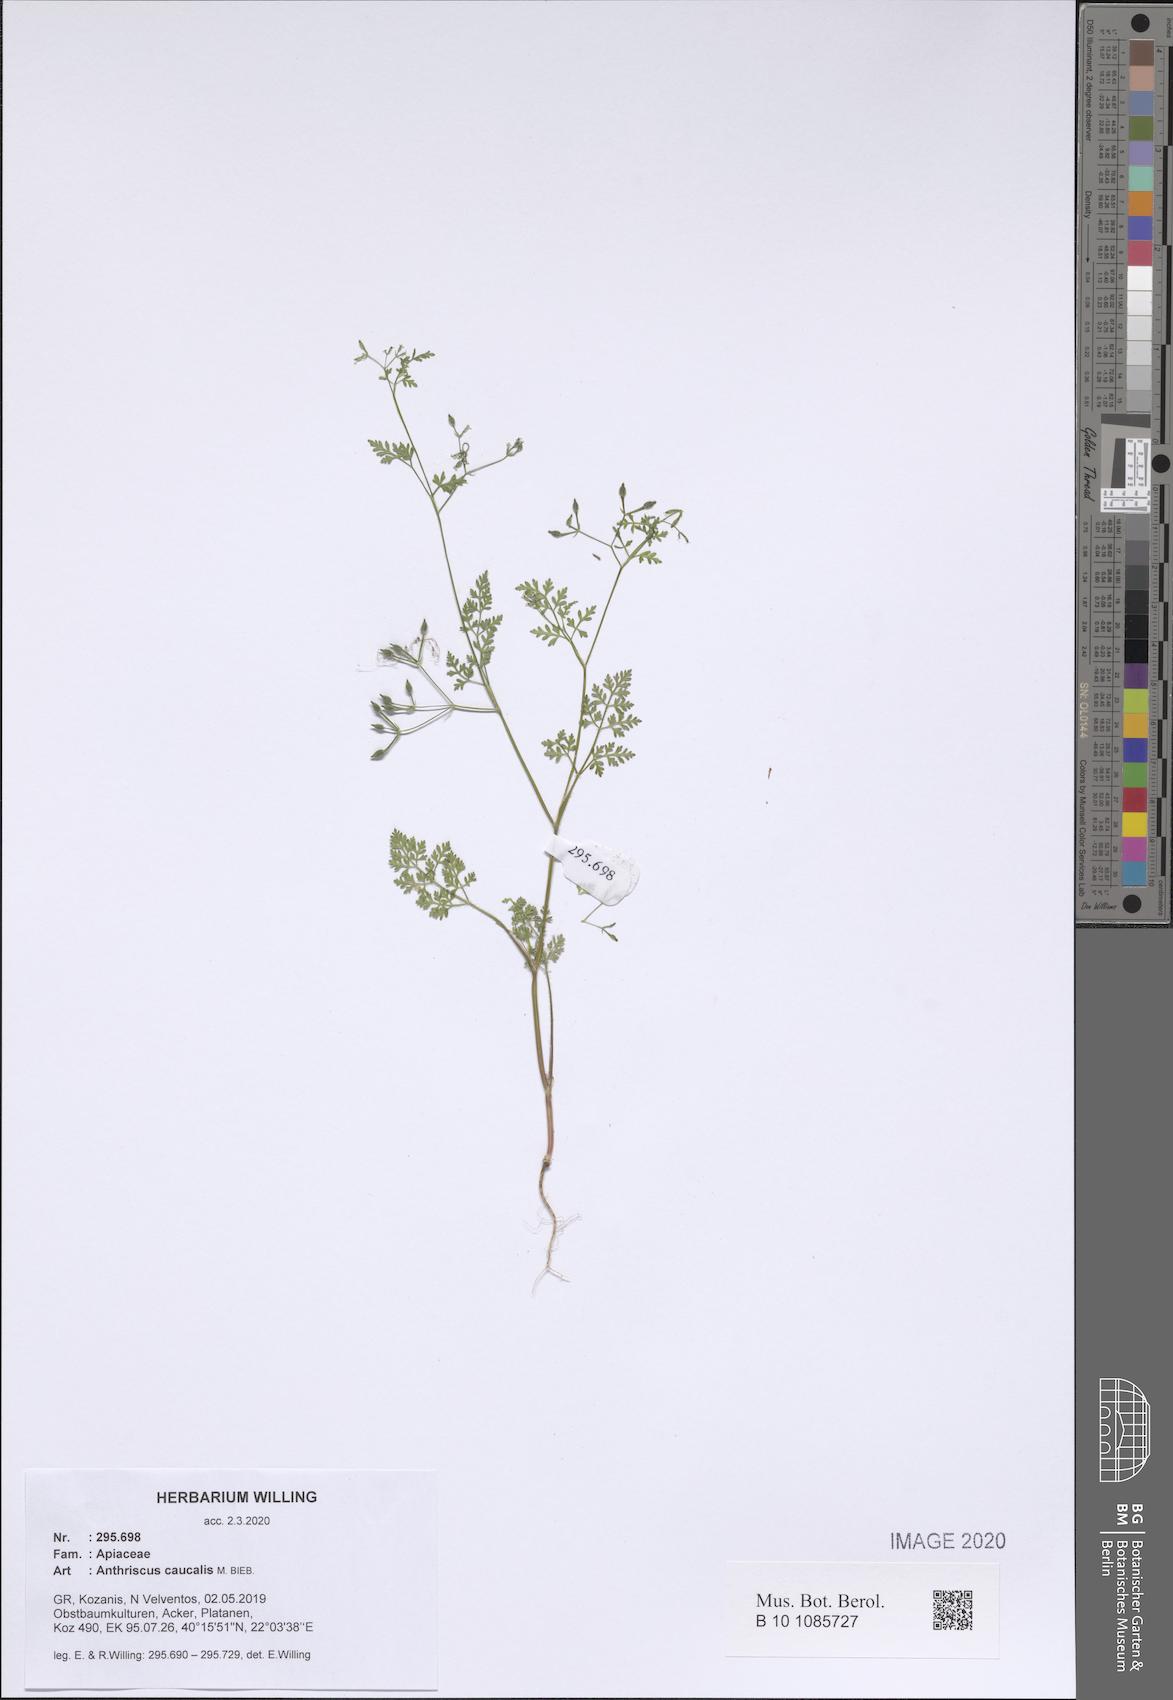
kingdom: Plantae
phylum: Tracheophyta
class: Magnoliopsida
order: Apiales
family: Apiaceae
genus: Anthriscus
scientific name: Anthriscus caucalis
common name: Bur chervil
